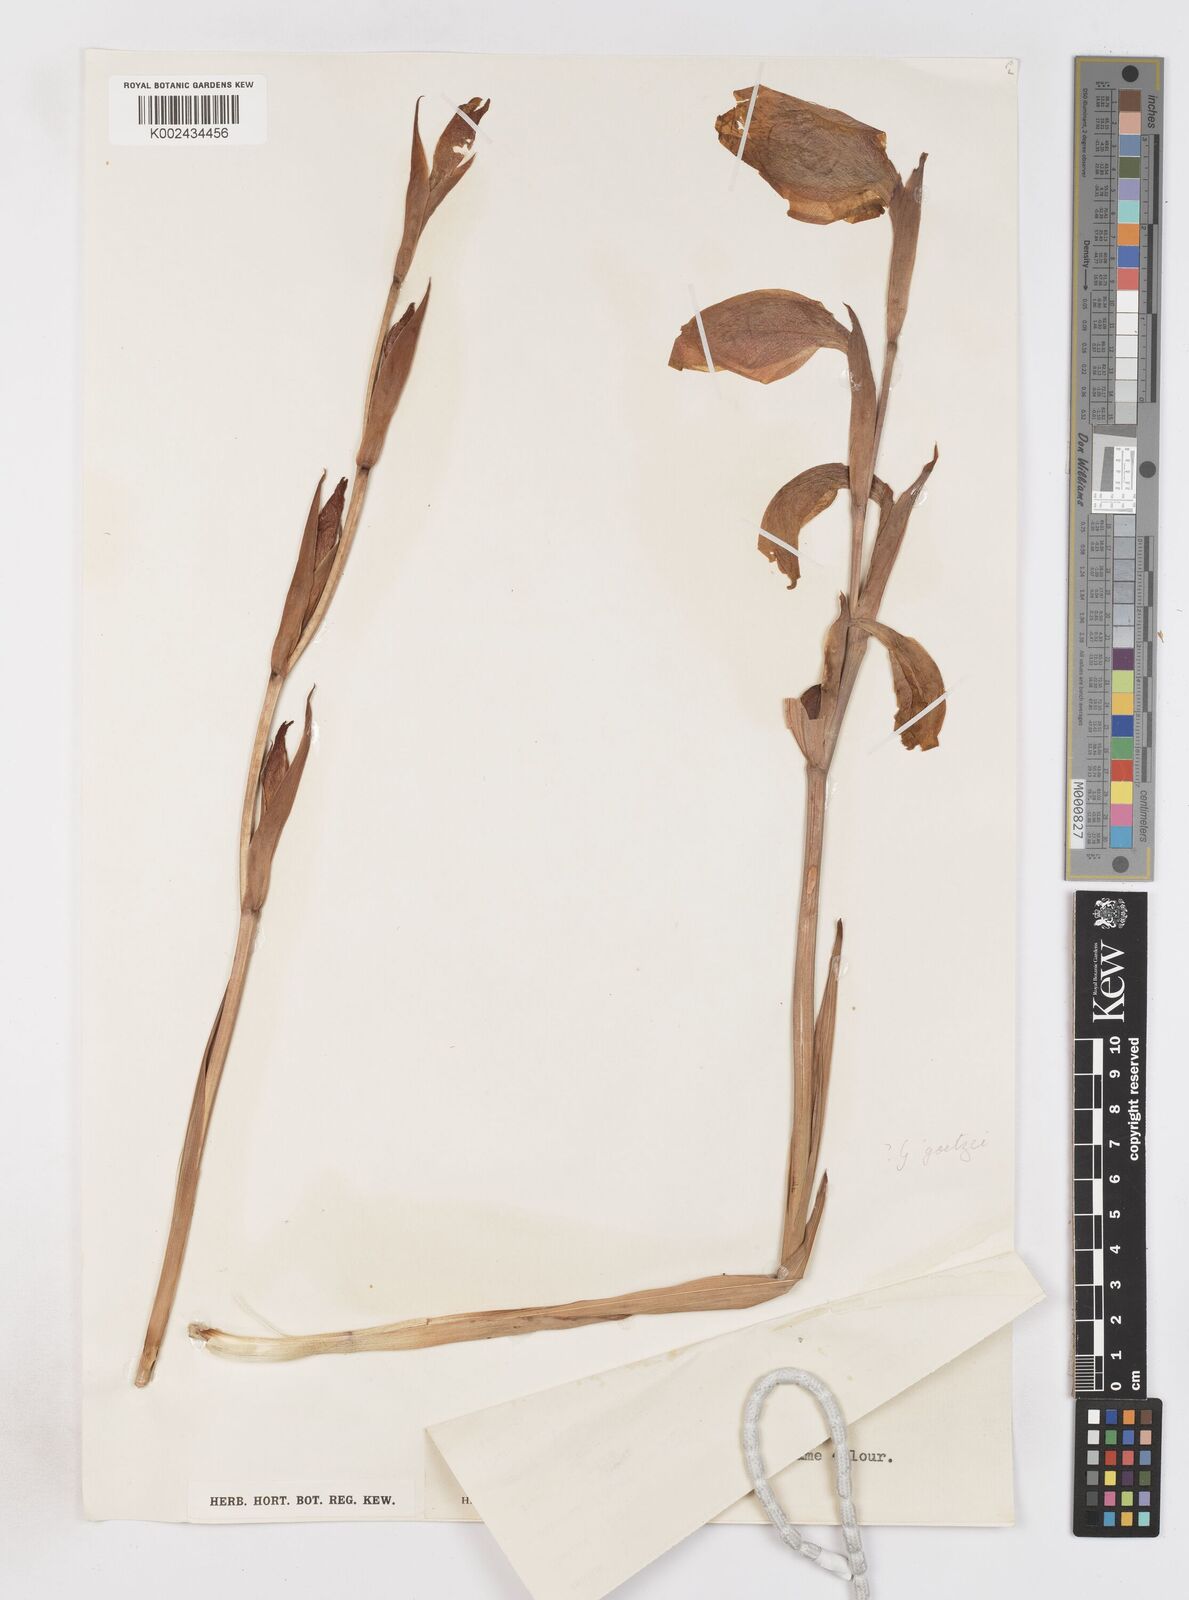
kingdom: Plantae
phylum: Tracheophyta
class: Liliopsida
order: Asparagales
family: Iridaceae
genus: Gladiolus
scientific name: Gladiolus dalenii
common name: Cornflag
